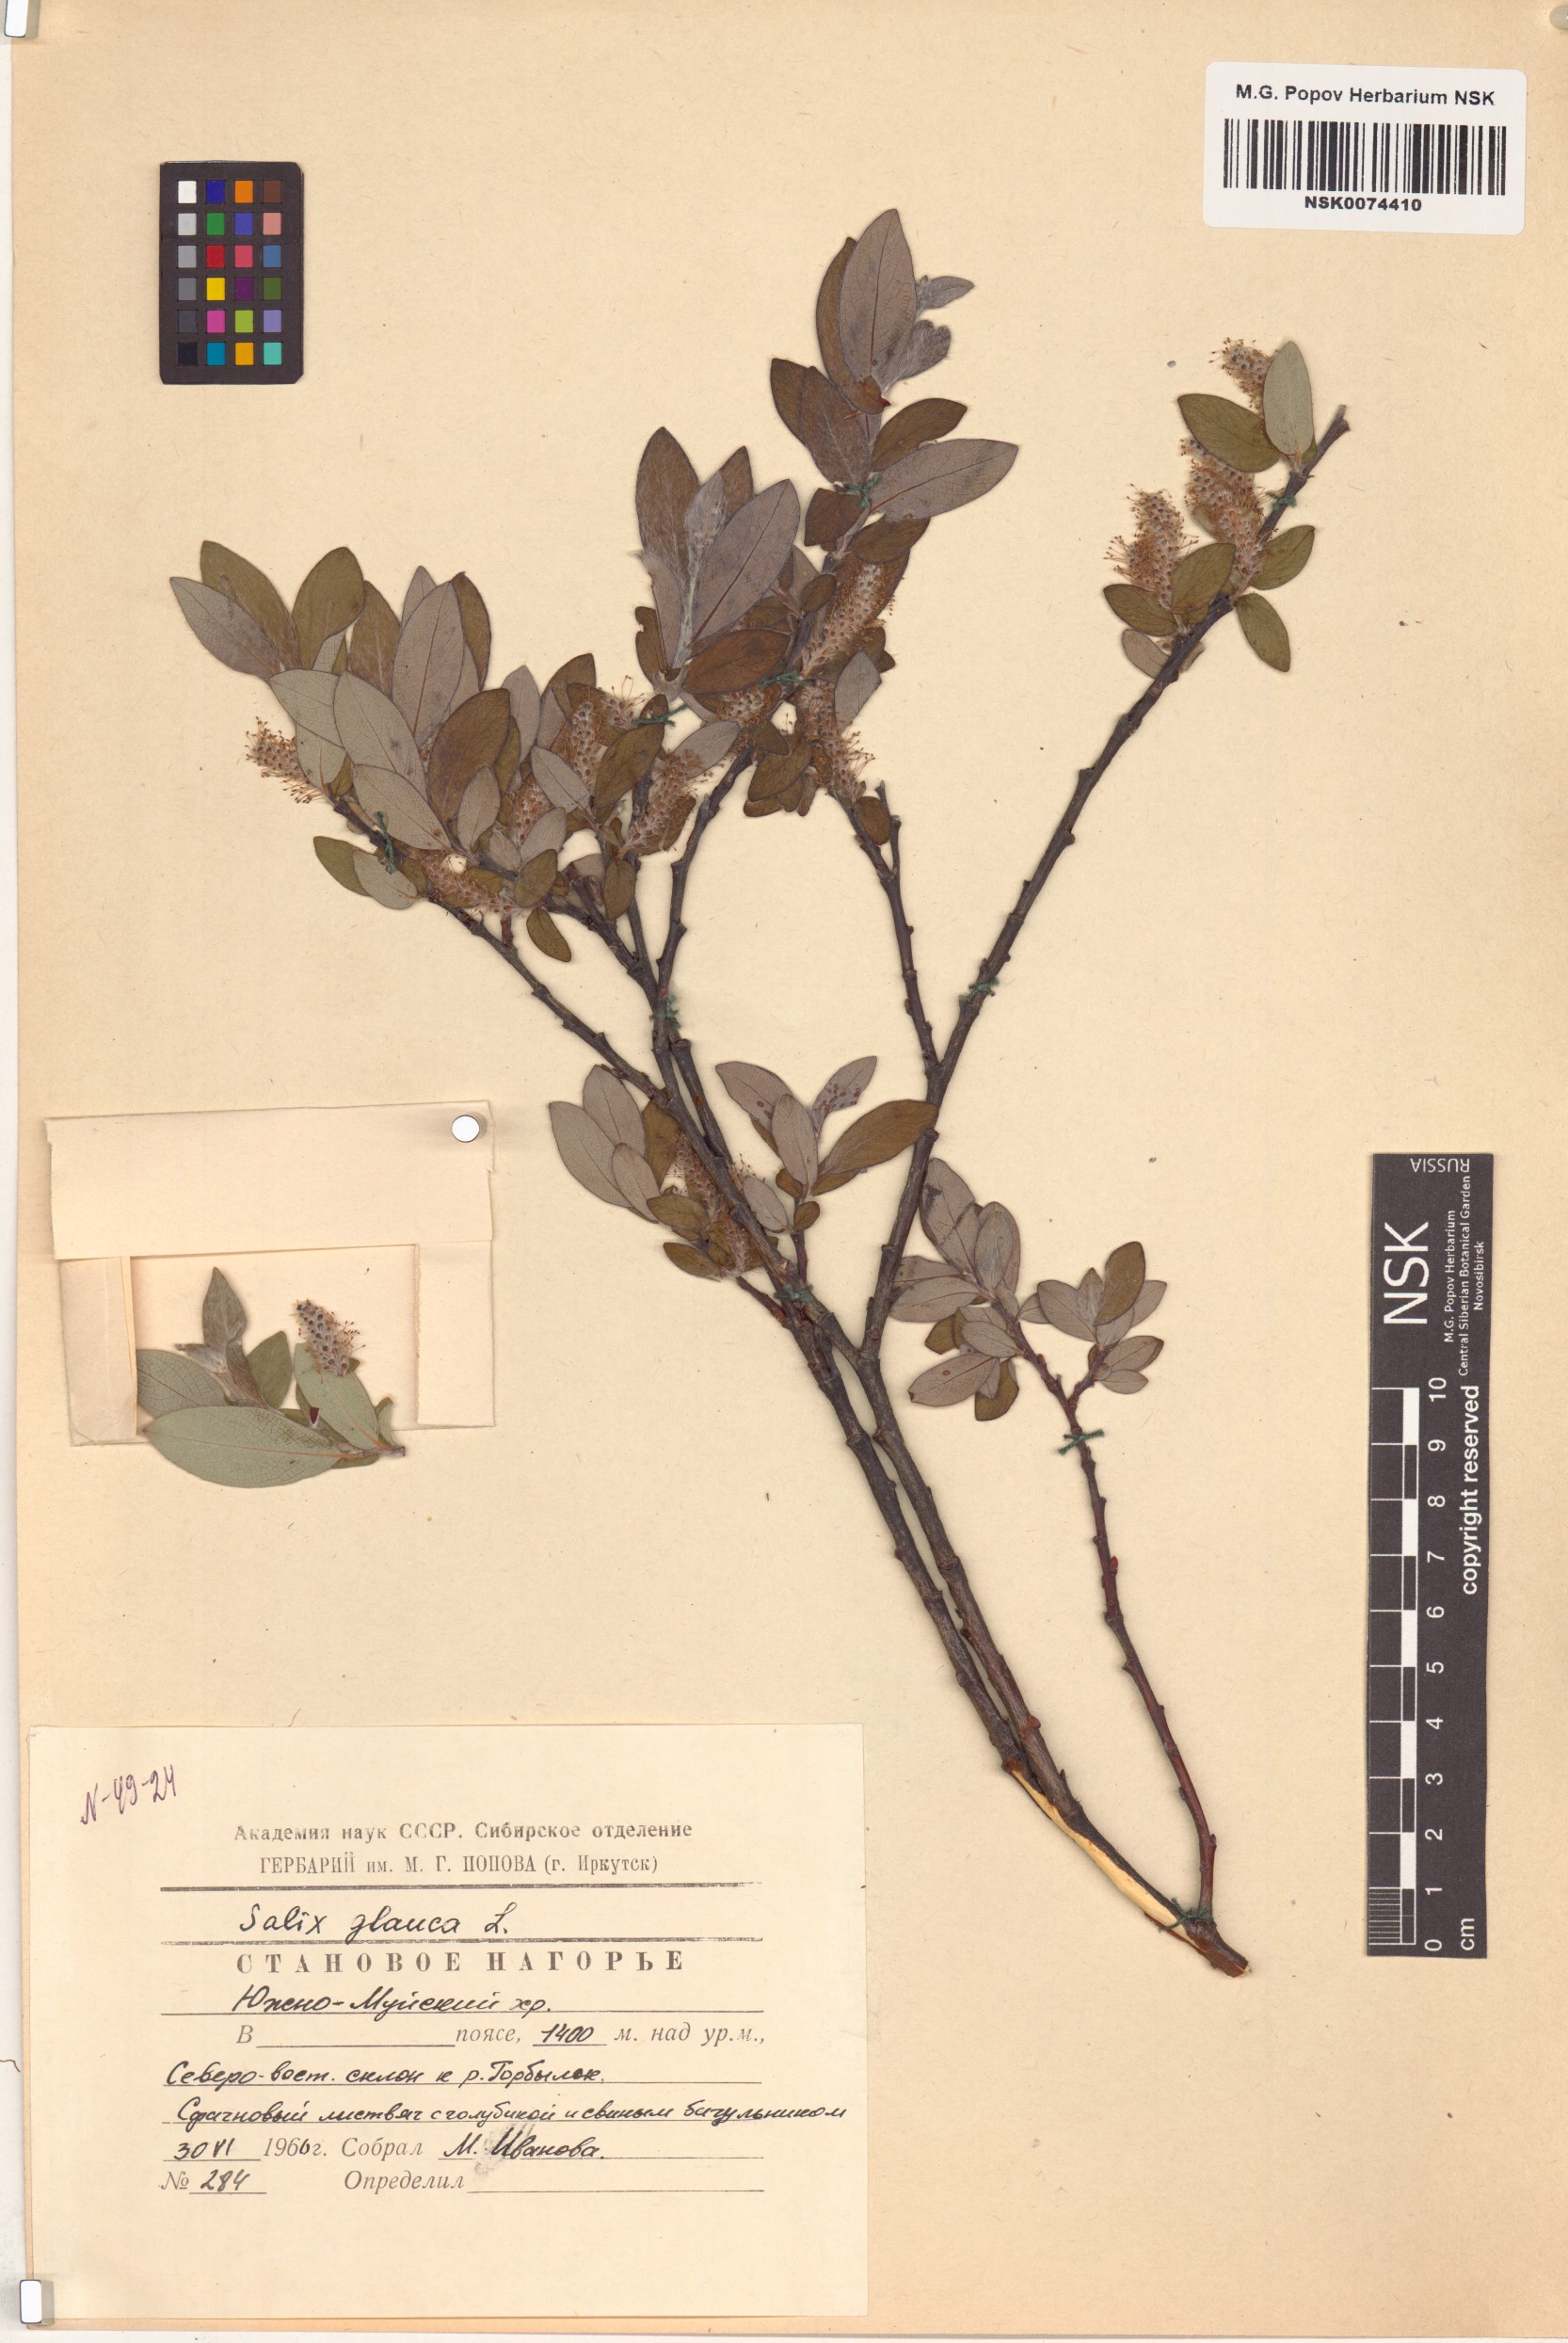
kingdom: Plantae
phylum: Tracheophyta
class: Magnoliopsida
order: Malpighiales
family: Salicaceae
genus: Salix
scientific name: Salix glauca
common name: Glaucous willow
